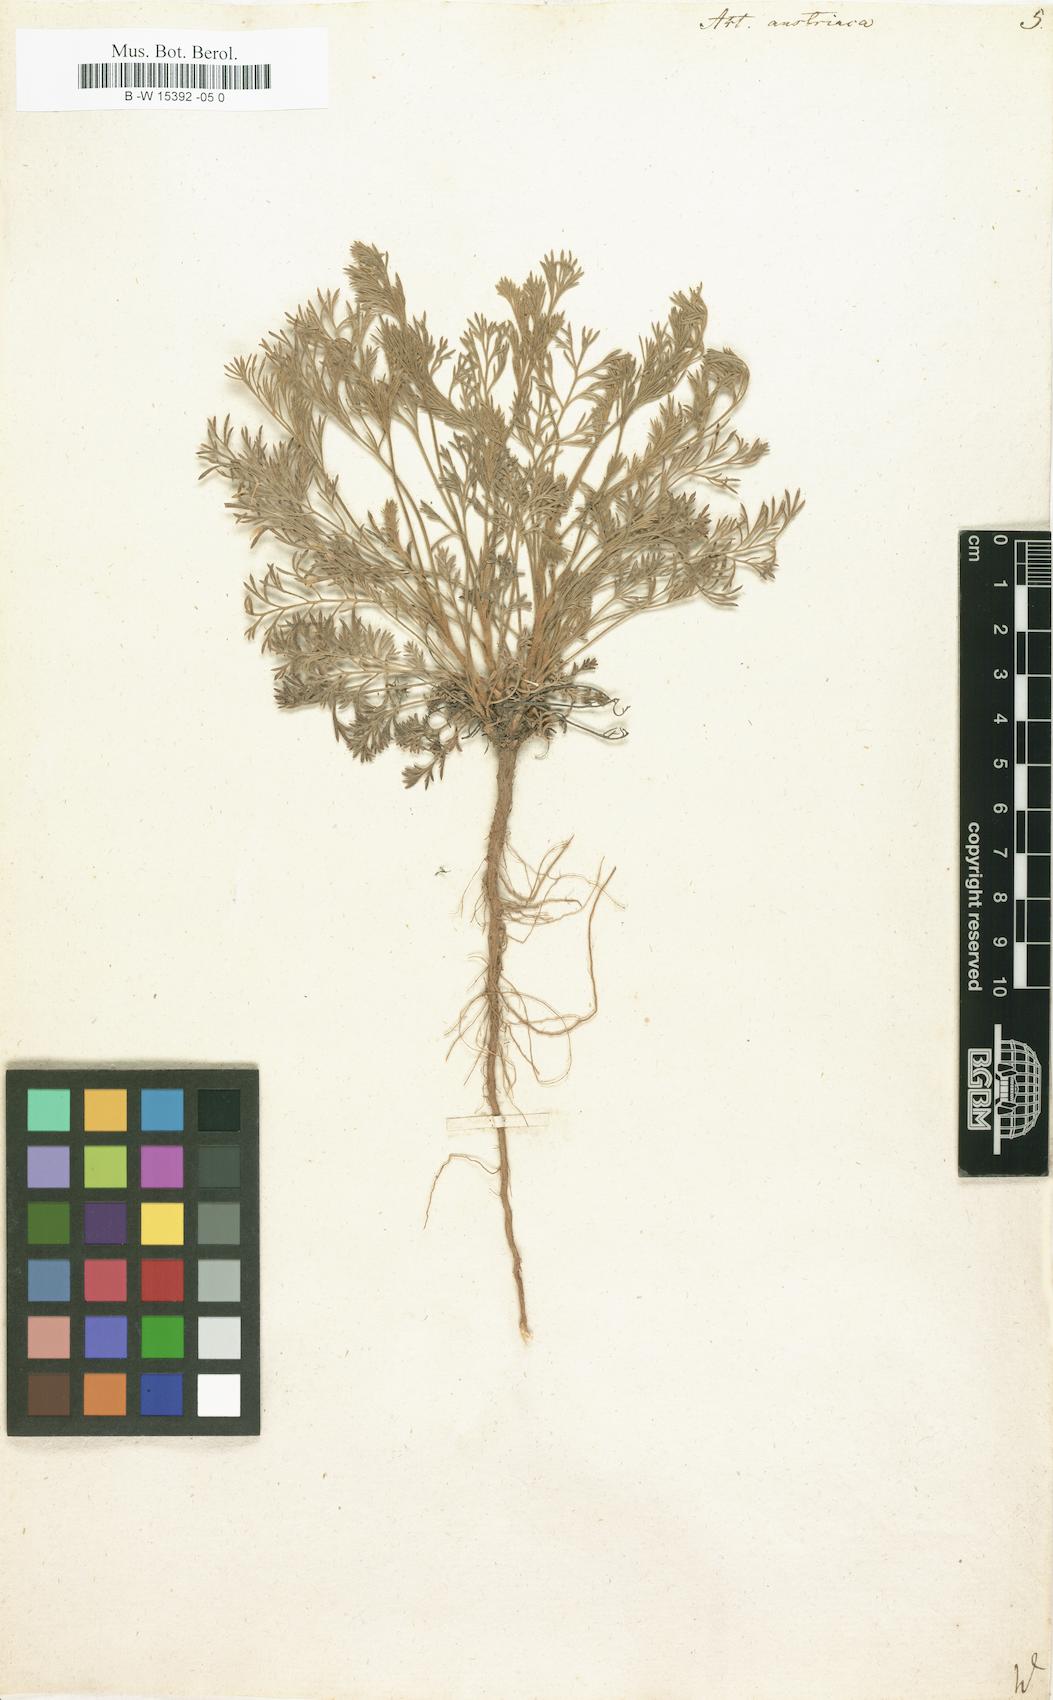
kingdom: Plantae
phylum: Tracheophyta
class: Magnoliopsida
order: Asterales
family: Asteraceae
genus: Artemisia
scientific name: Artemisia austriaca
